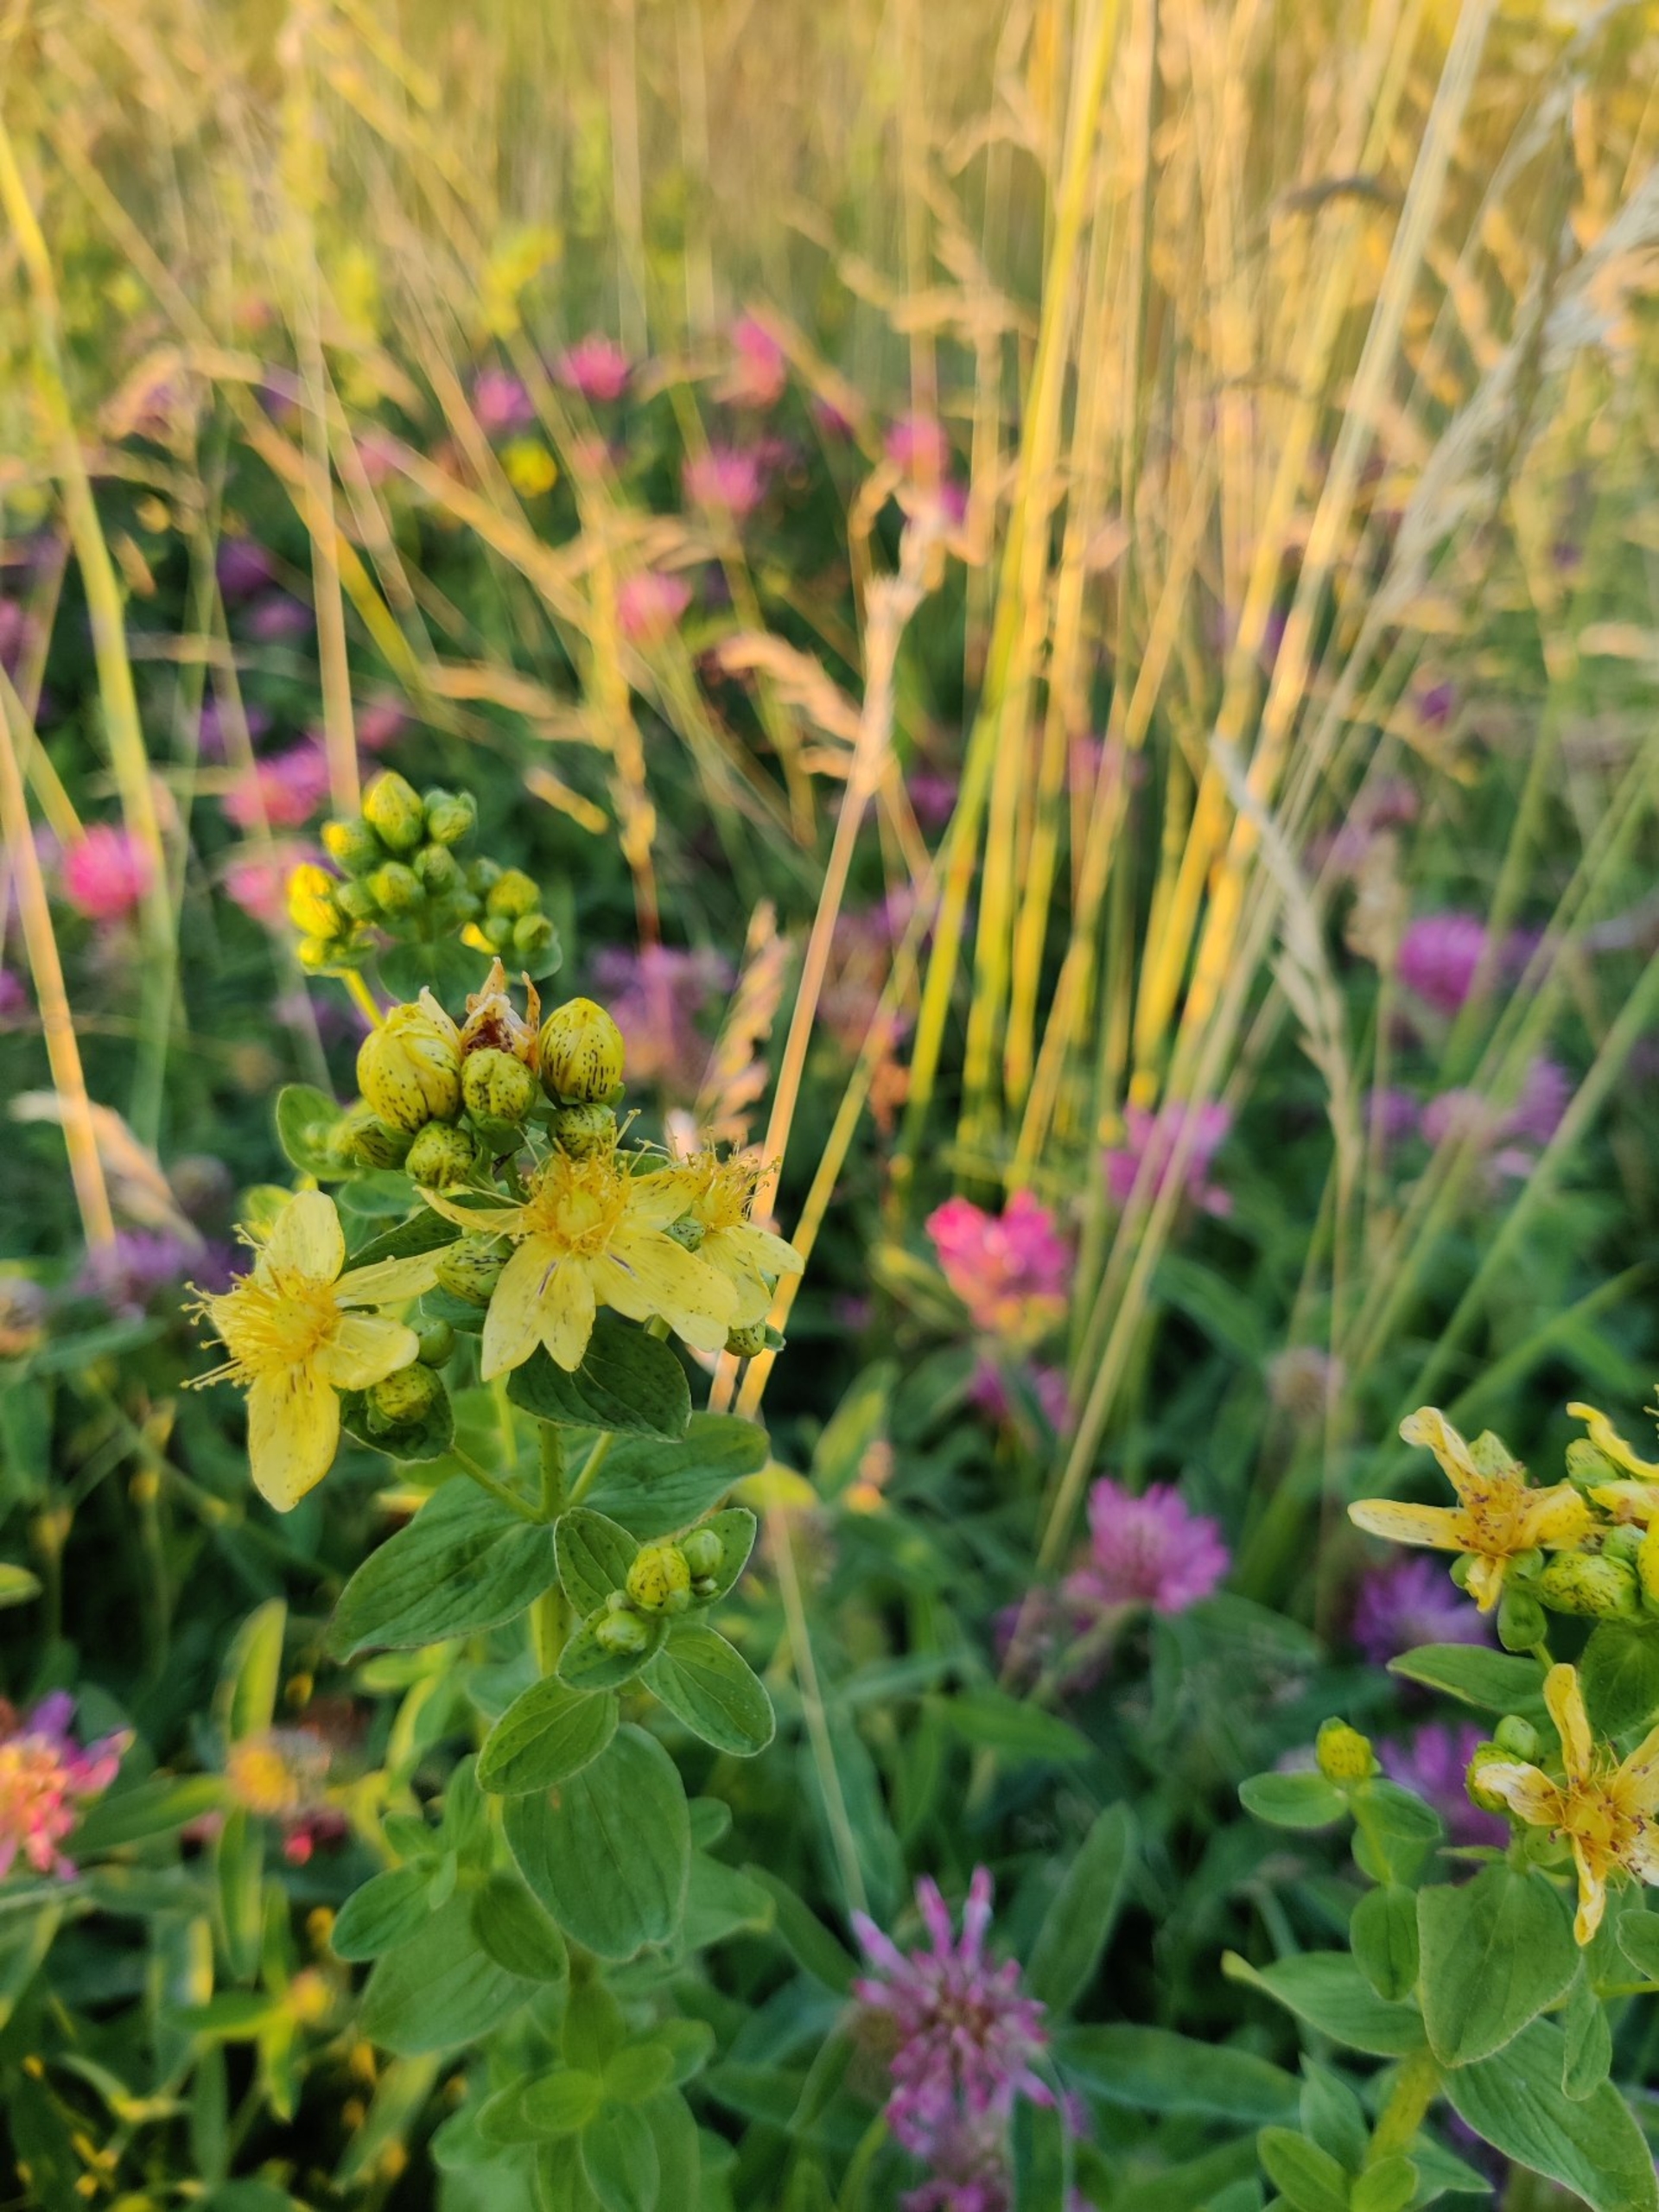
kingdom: Plantae
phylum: Tracheophyta
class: Magnoliopsida
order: Malpighiales
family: Hypericaceae
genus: Hypericum
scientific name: Hypericum maculatum
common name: Kantet perikon
